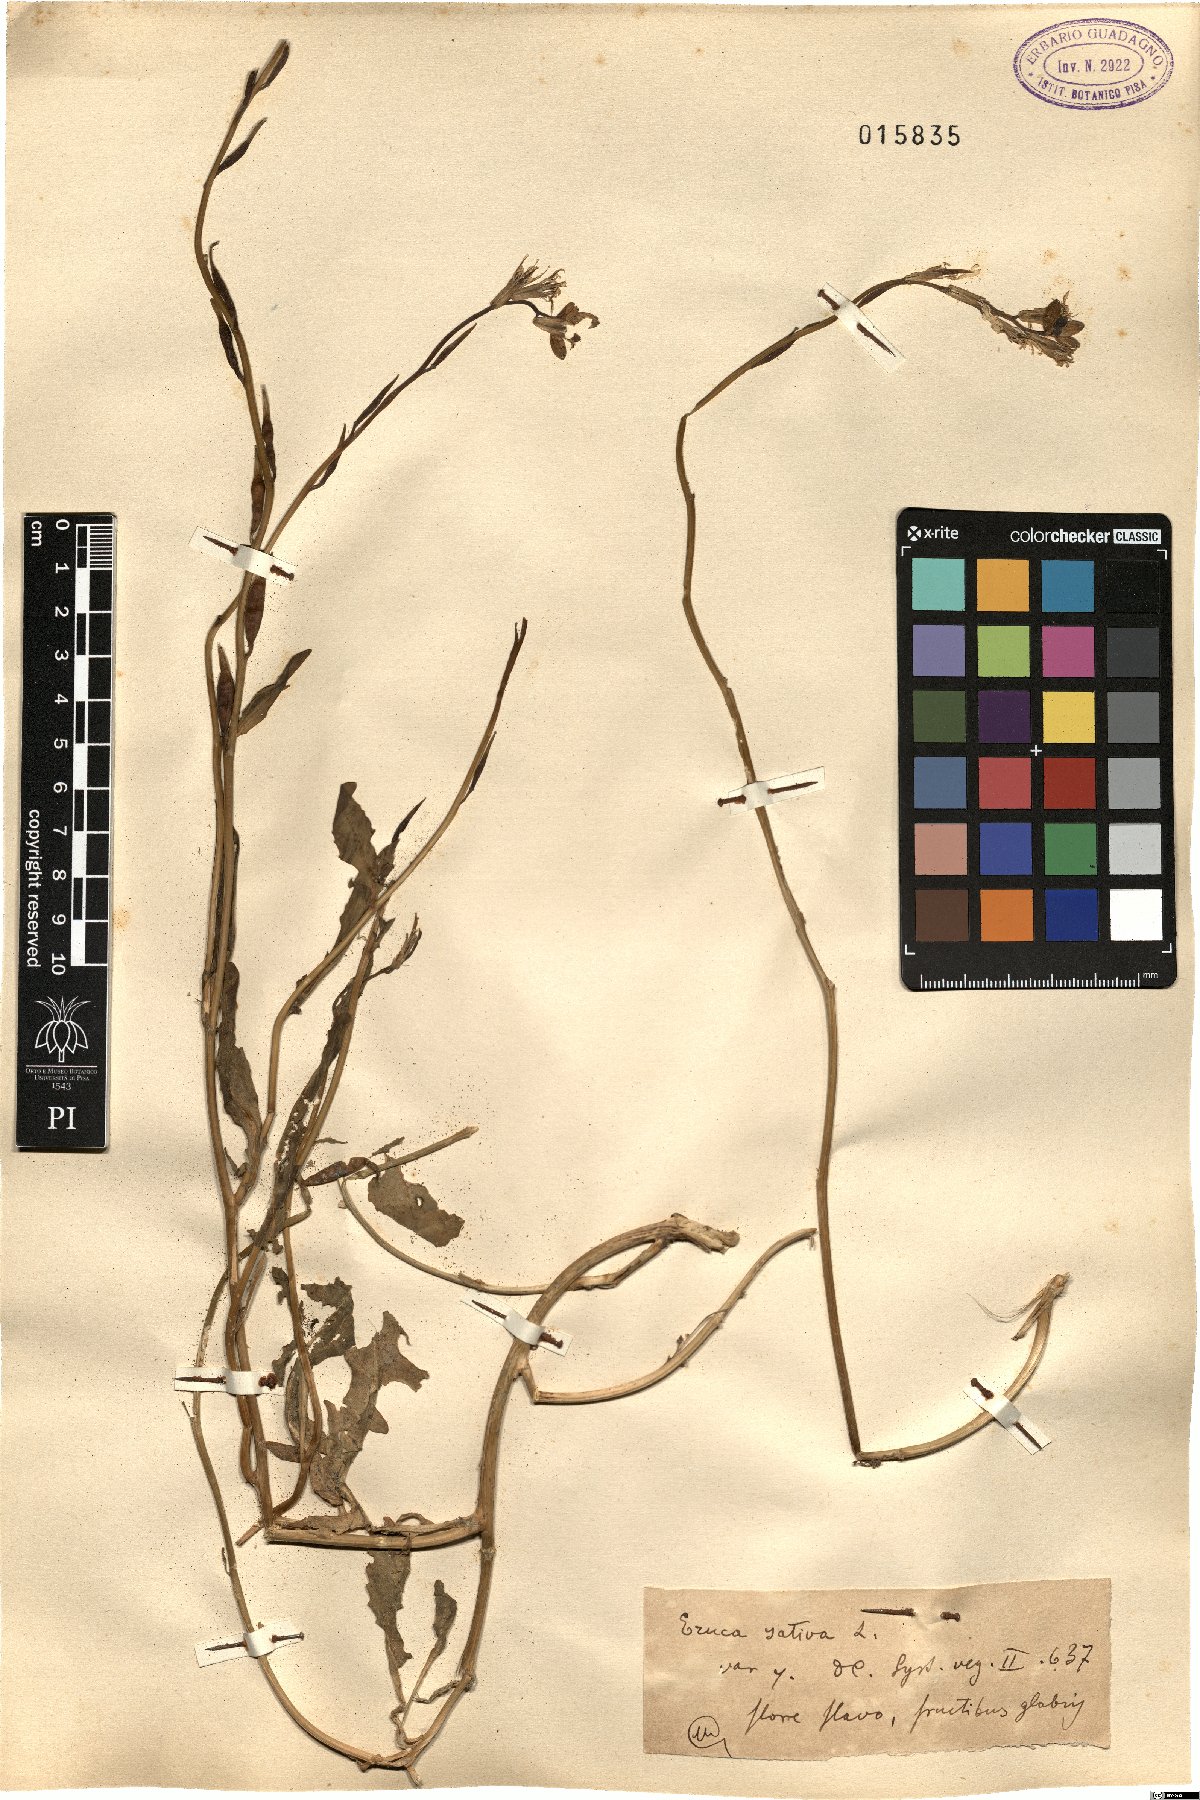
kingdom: Plantae
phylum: Tracheophyta
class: Magnoliopsida
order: Brassicales
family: Brassicaceae
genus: Eruca
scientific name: Eruca vesicaria
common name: Garden rocket
